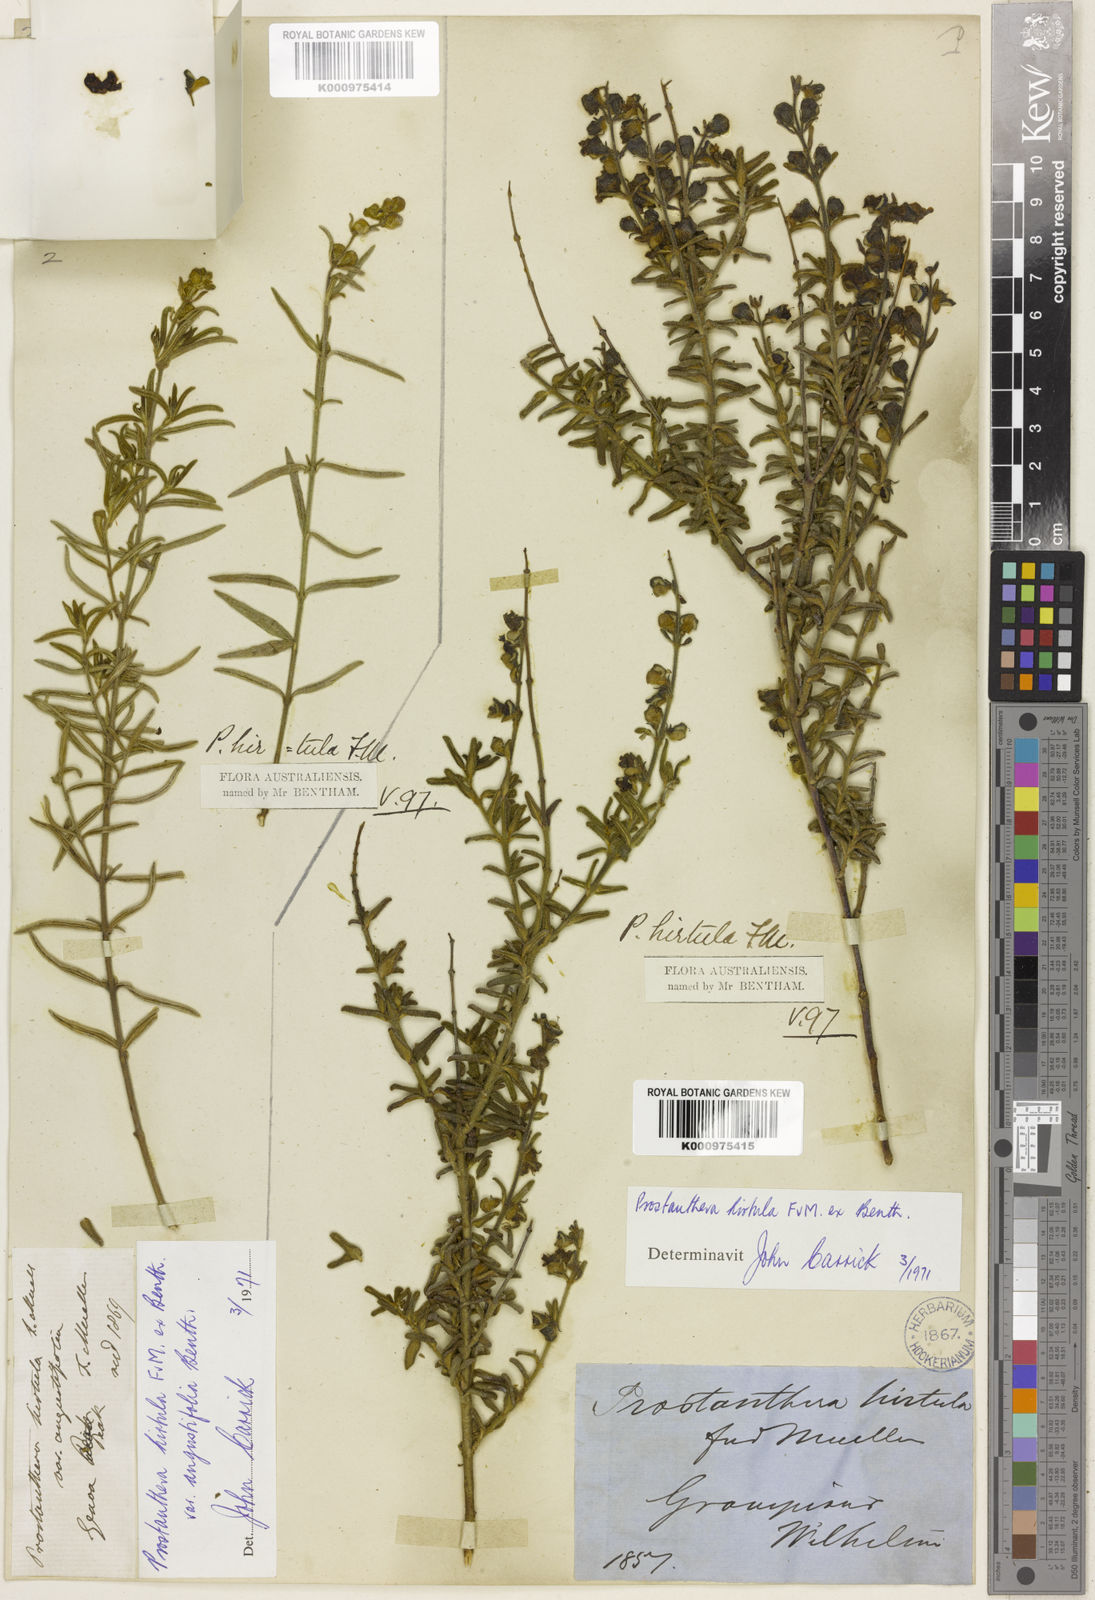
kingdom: Plantae
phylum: Tracheophyta
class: Magnoliopsida
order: Lamiales
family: Lamiaceae
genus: Prostanthera
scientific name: Prostanthera hirtula
